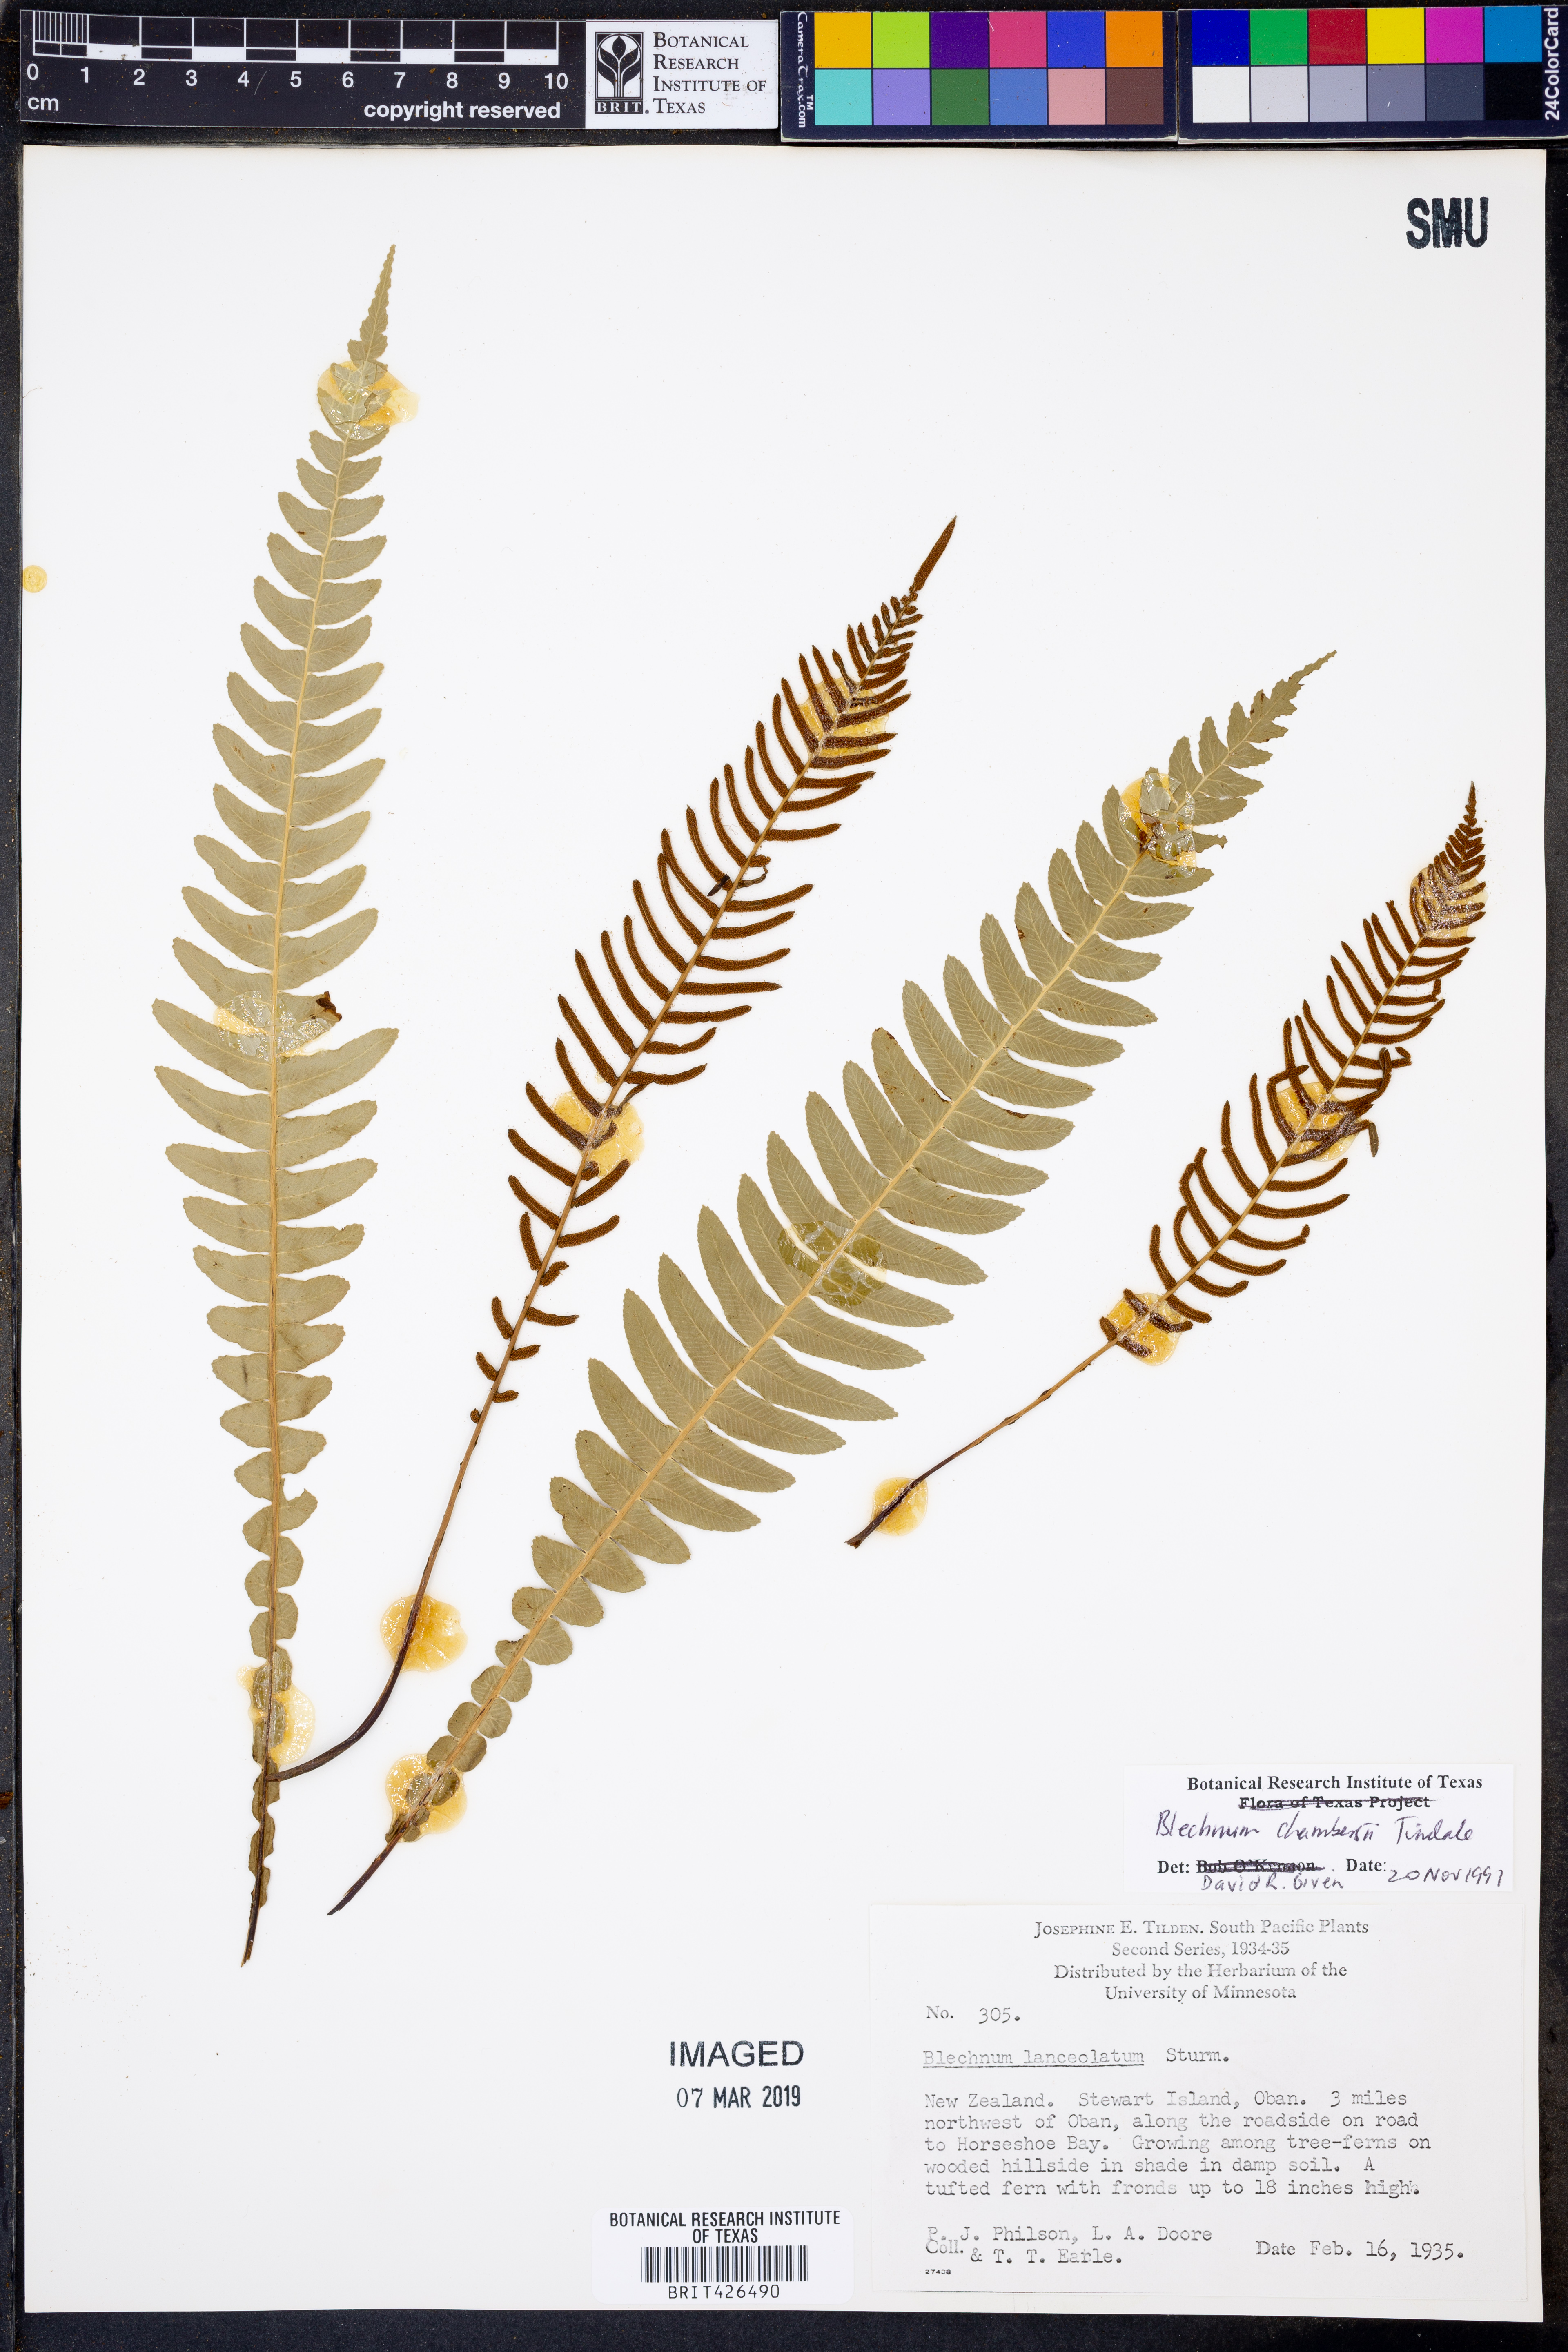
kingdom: Plantae
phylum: Tracheophyta
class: Polypodiopsida
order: Polypodiales
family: Blechnaceae
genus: Austroblechnum
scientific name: Austroblechnum lanceolatum
